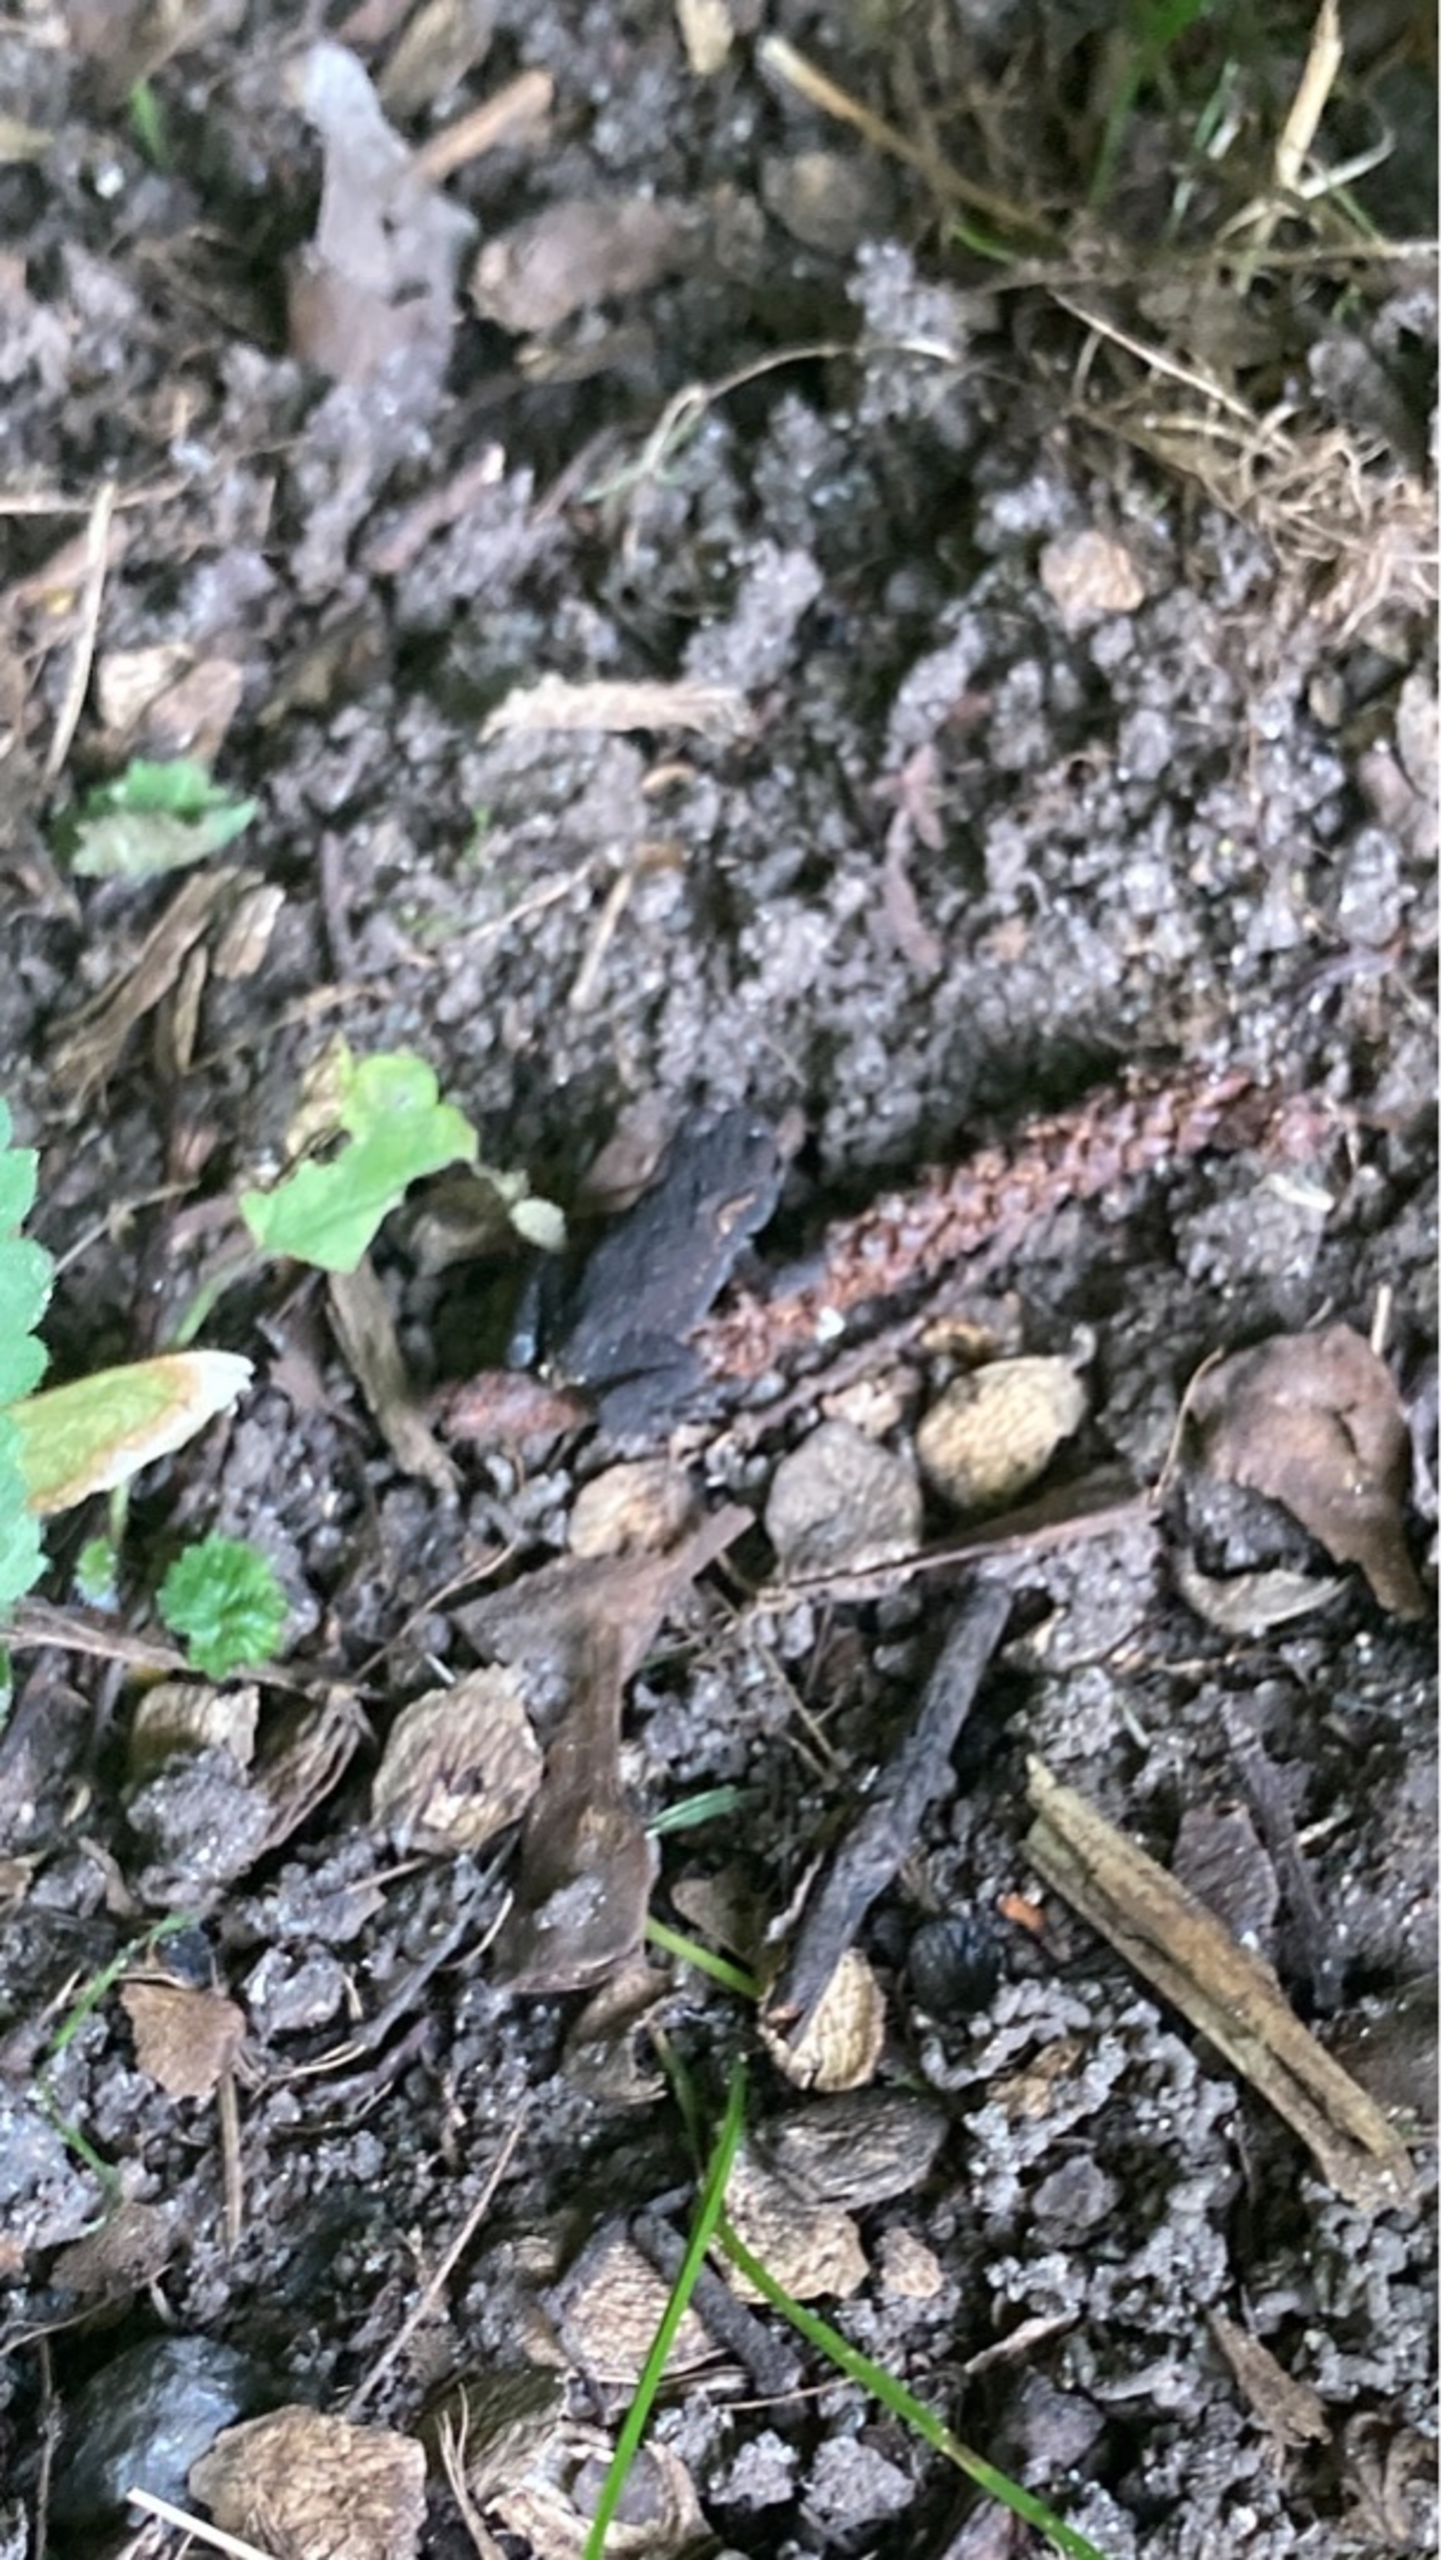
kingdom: Animalia
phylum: Chordata
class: Amphibia
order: Anura
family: Bufonidae
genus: Bufo
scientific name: Bufo bufo
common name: Skrubtudse
